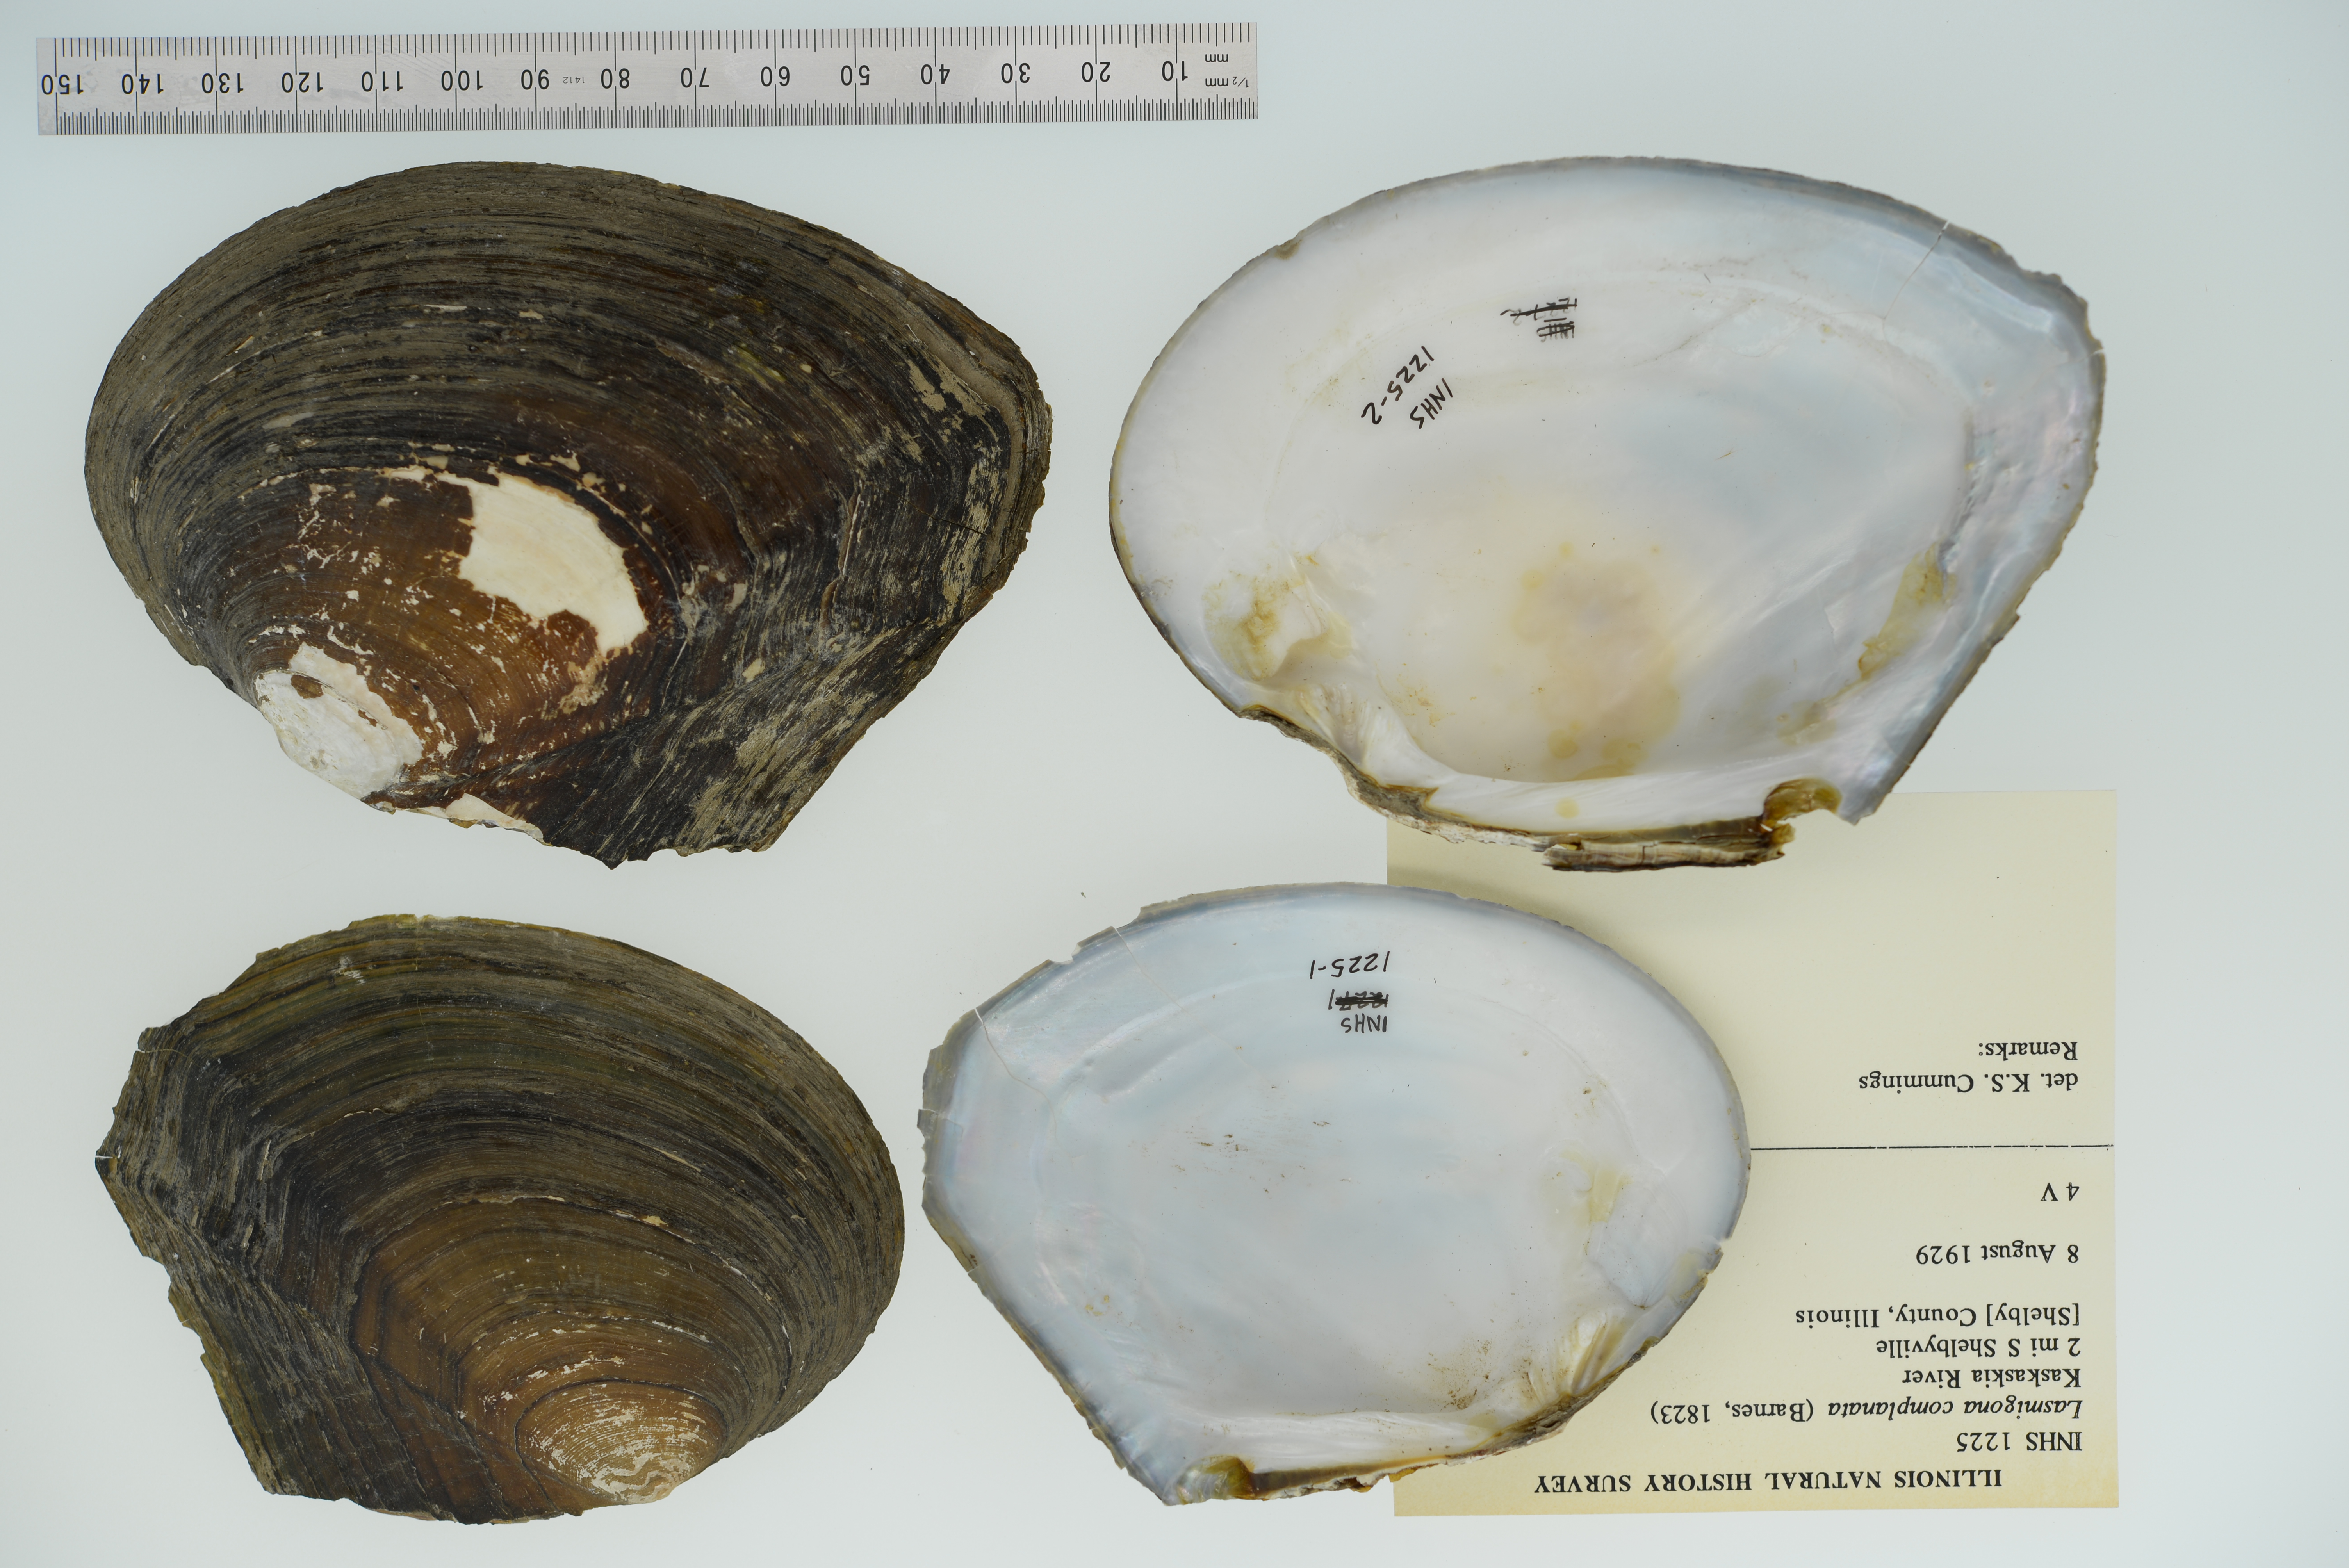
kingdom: Animalia
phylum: Mollusca
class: Bivalvia
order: Unionida
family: Unionidae
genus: Lasmigona
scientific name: Lasmigona complanata
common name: White heelsplitter
